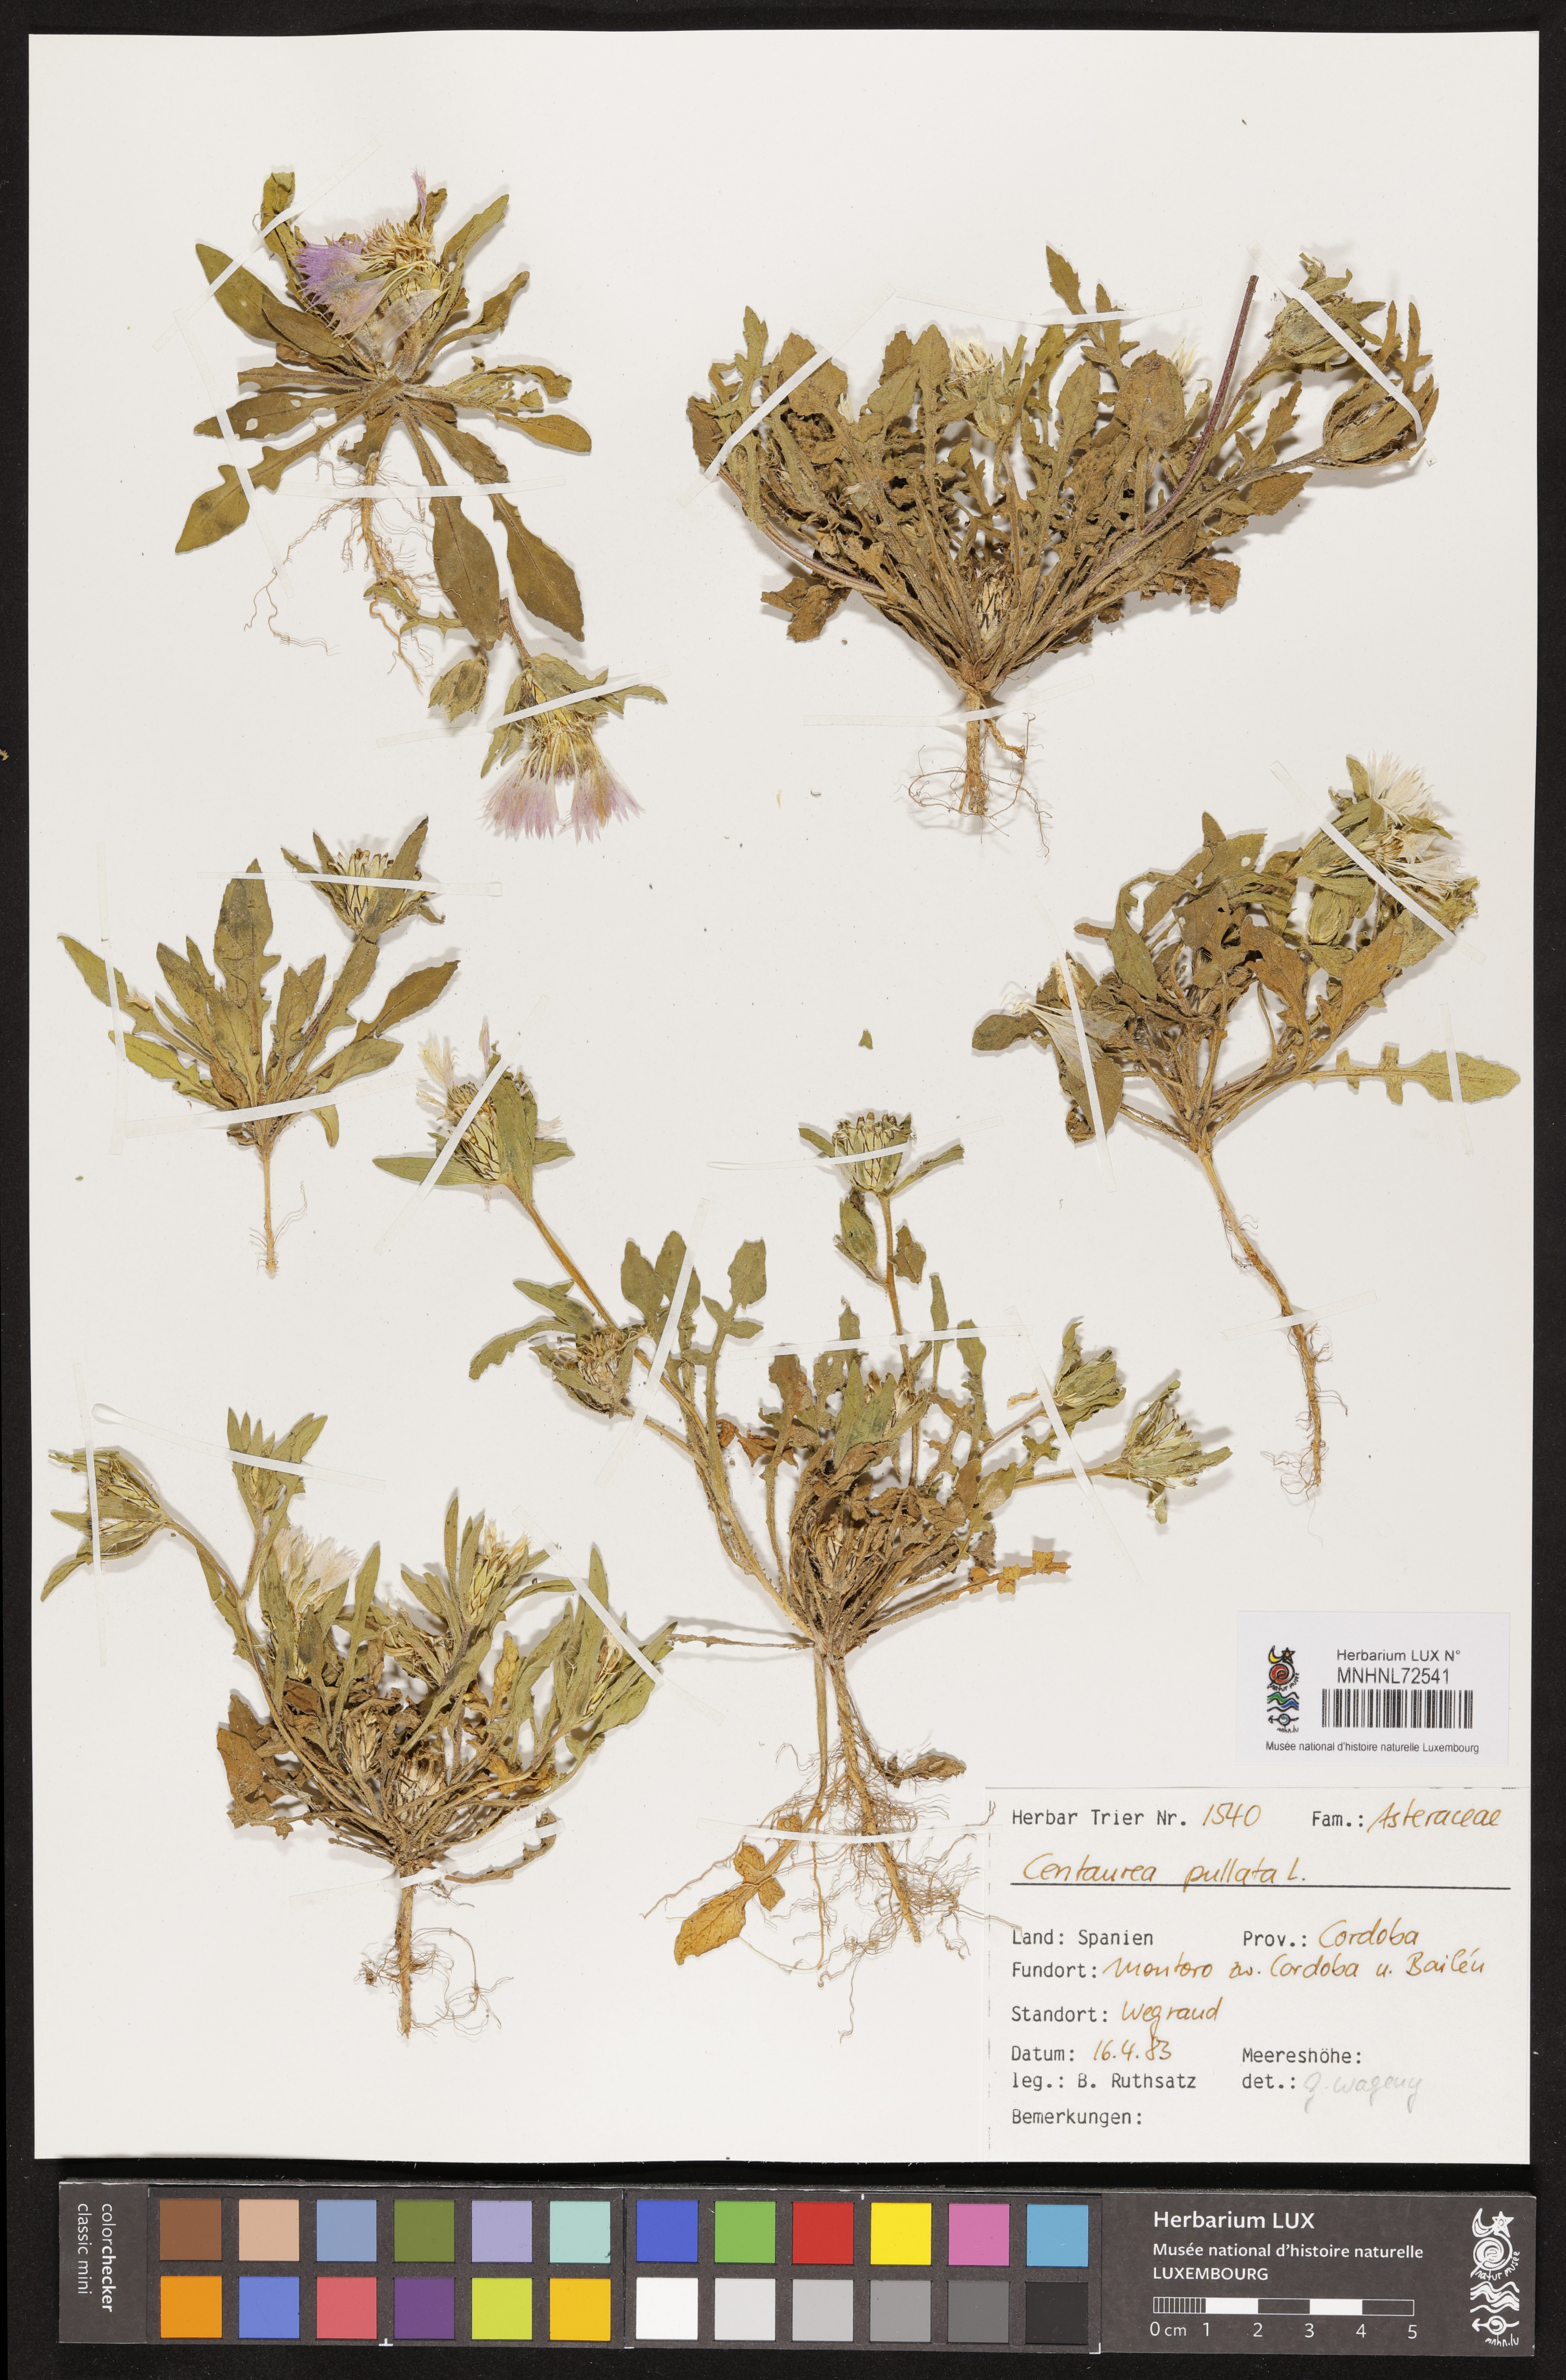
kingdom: Plantae
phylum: Tracheophyta
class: Magnoliopsida
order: Asterales
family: Asteraceae
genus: Centaurea
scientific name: Centaurea pullata
